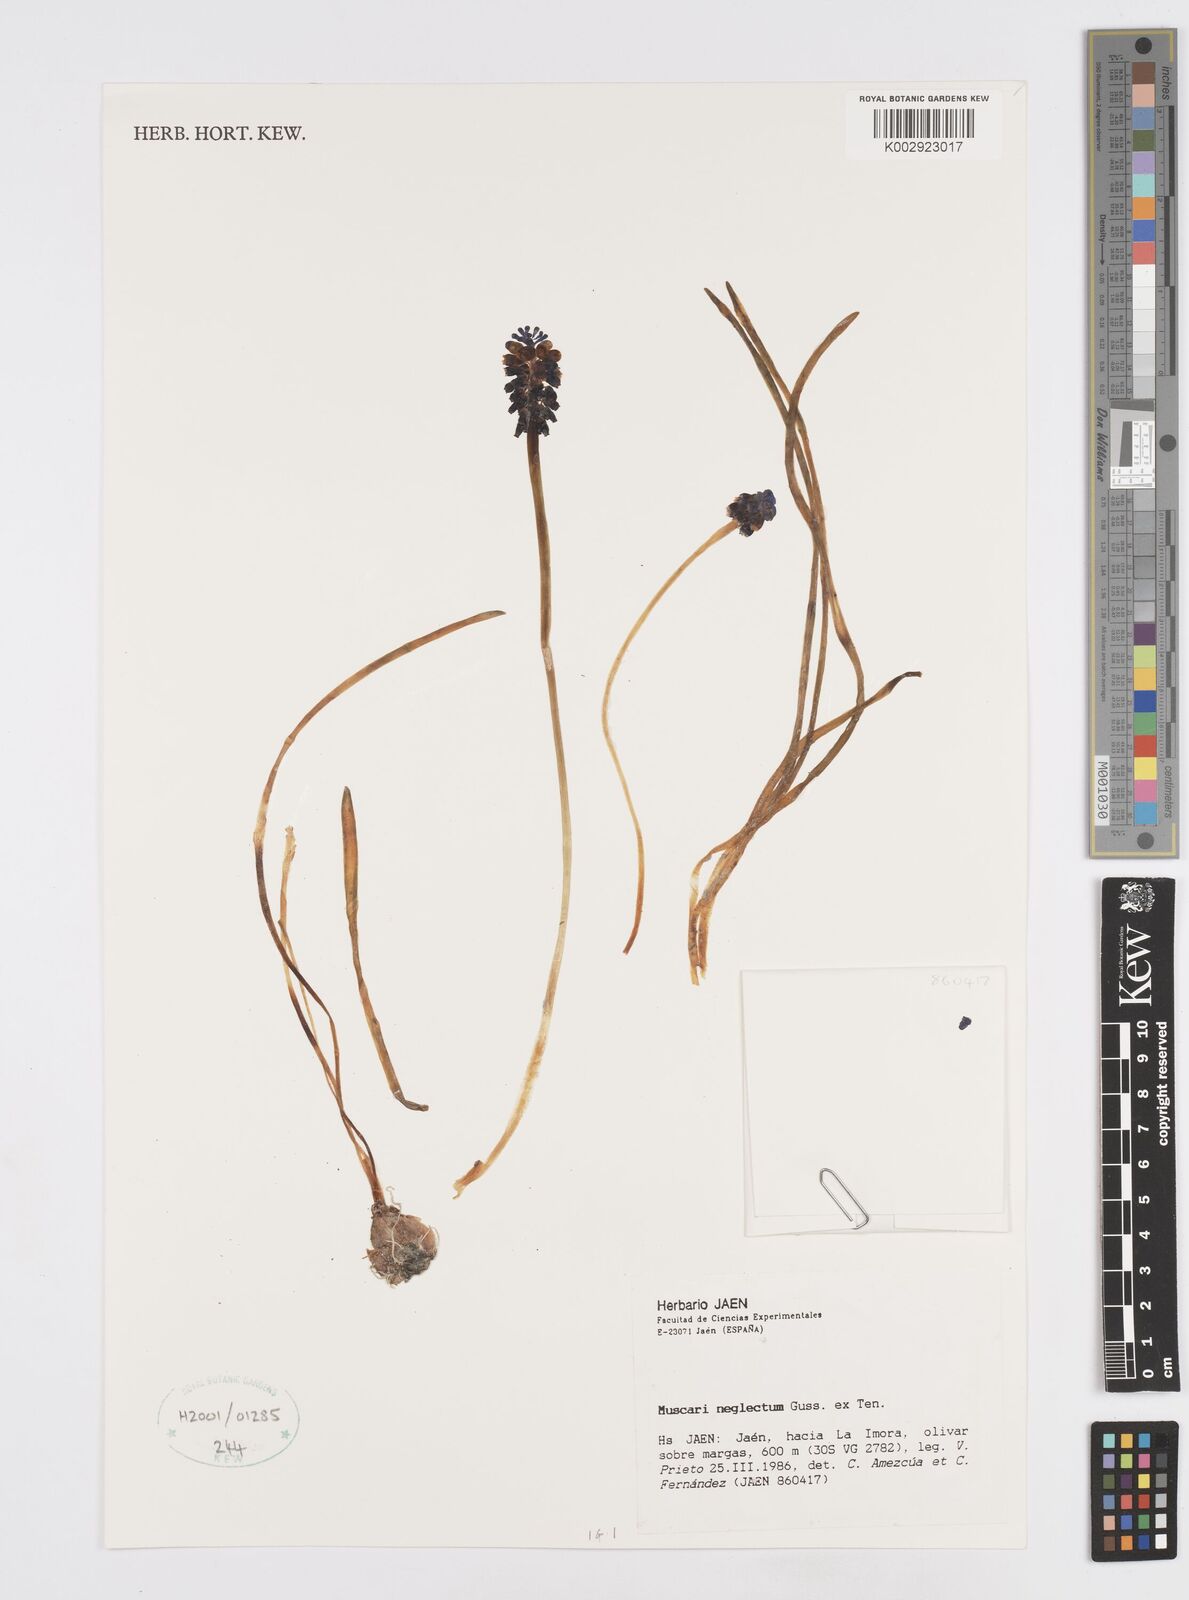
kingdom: Plantae
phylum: Tracheophyta
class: Liliopsida
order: Asparagales
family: Asparagaceae
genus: Muscari
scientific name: Muscari neglectum
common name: Grape-hyacinth
